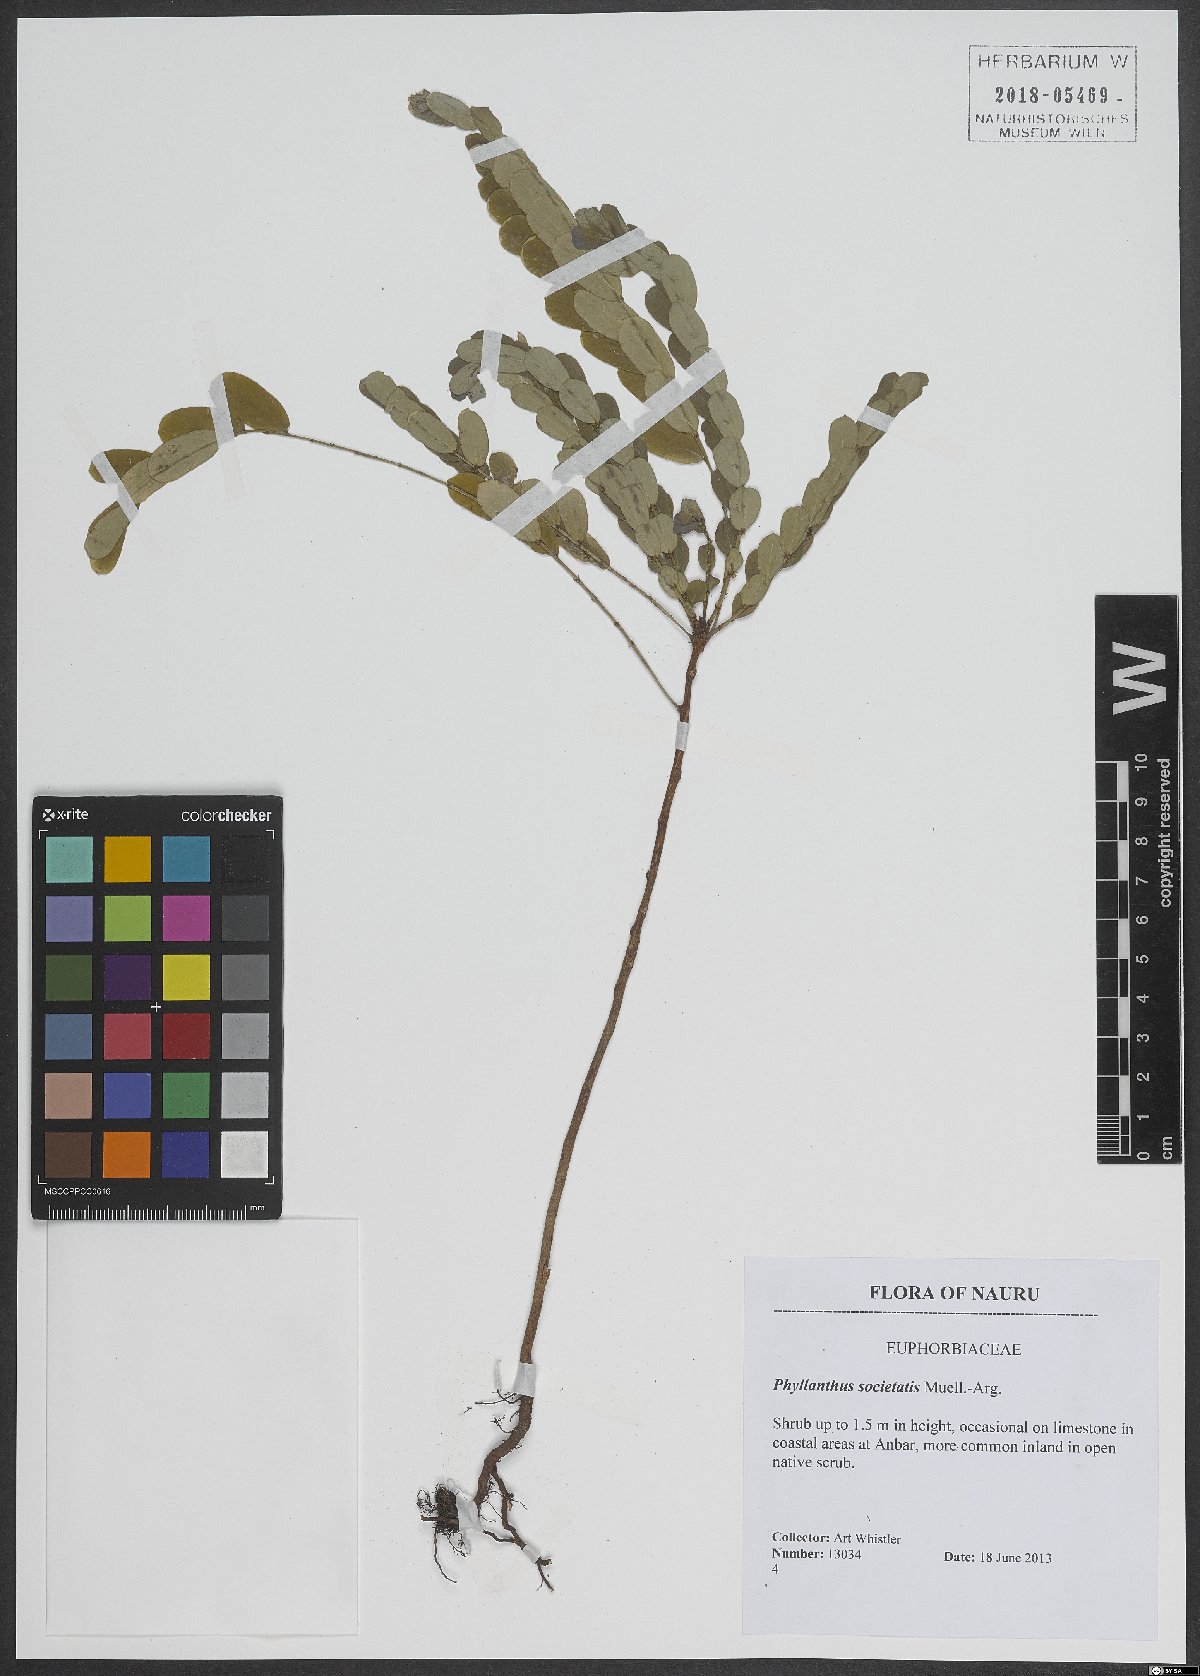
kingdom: Plantae
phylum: Tracheophyta
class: Magnoliopsida
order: Malpighiales
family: Phyllanthaceae
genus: Phyllanthus
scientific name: Phyllanthus societatis
